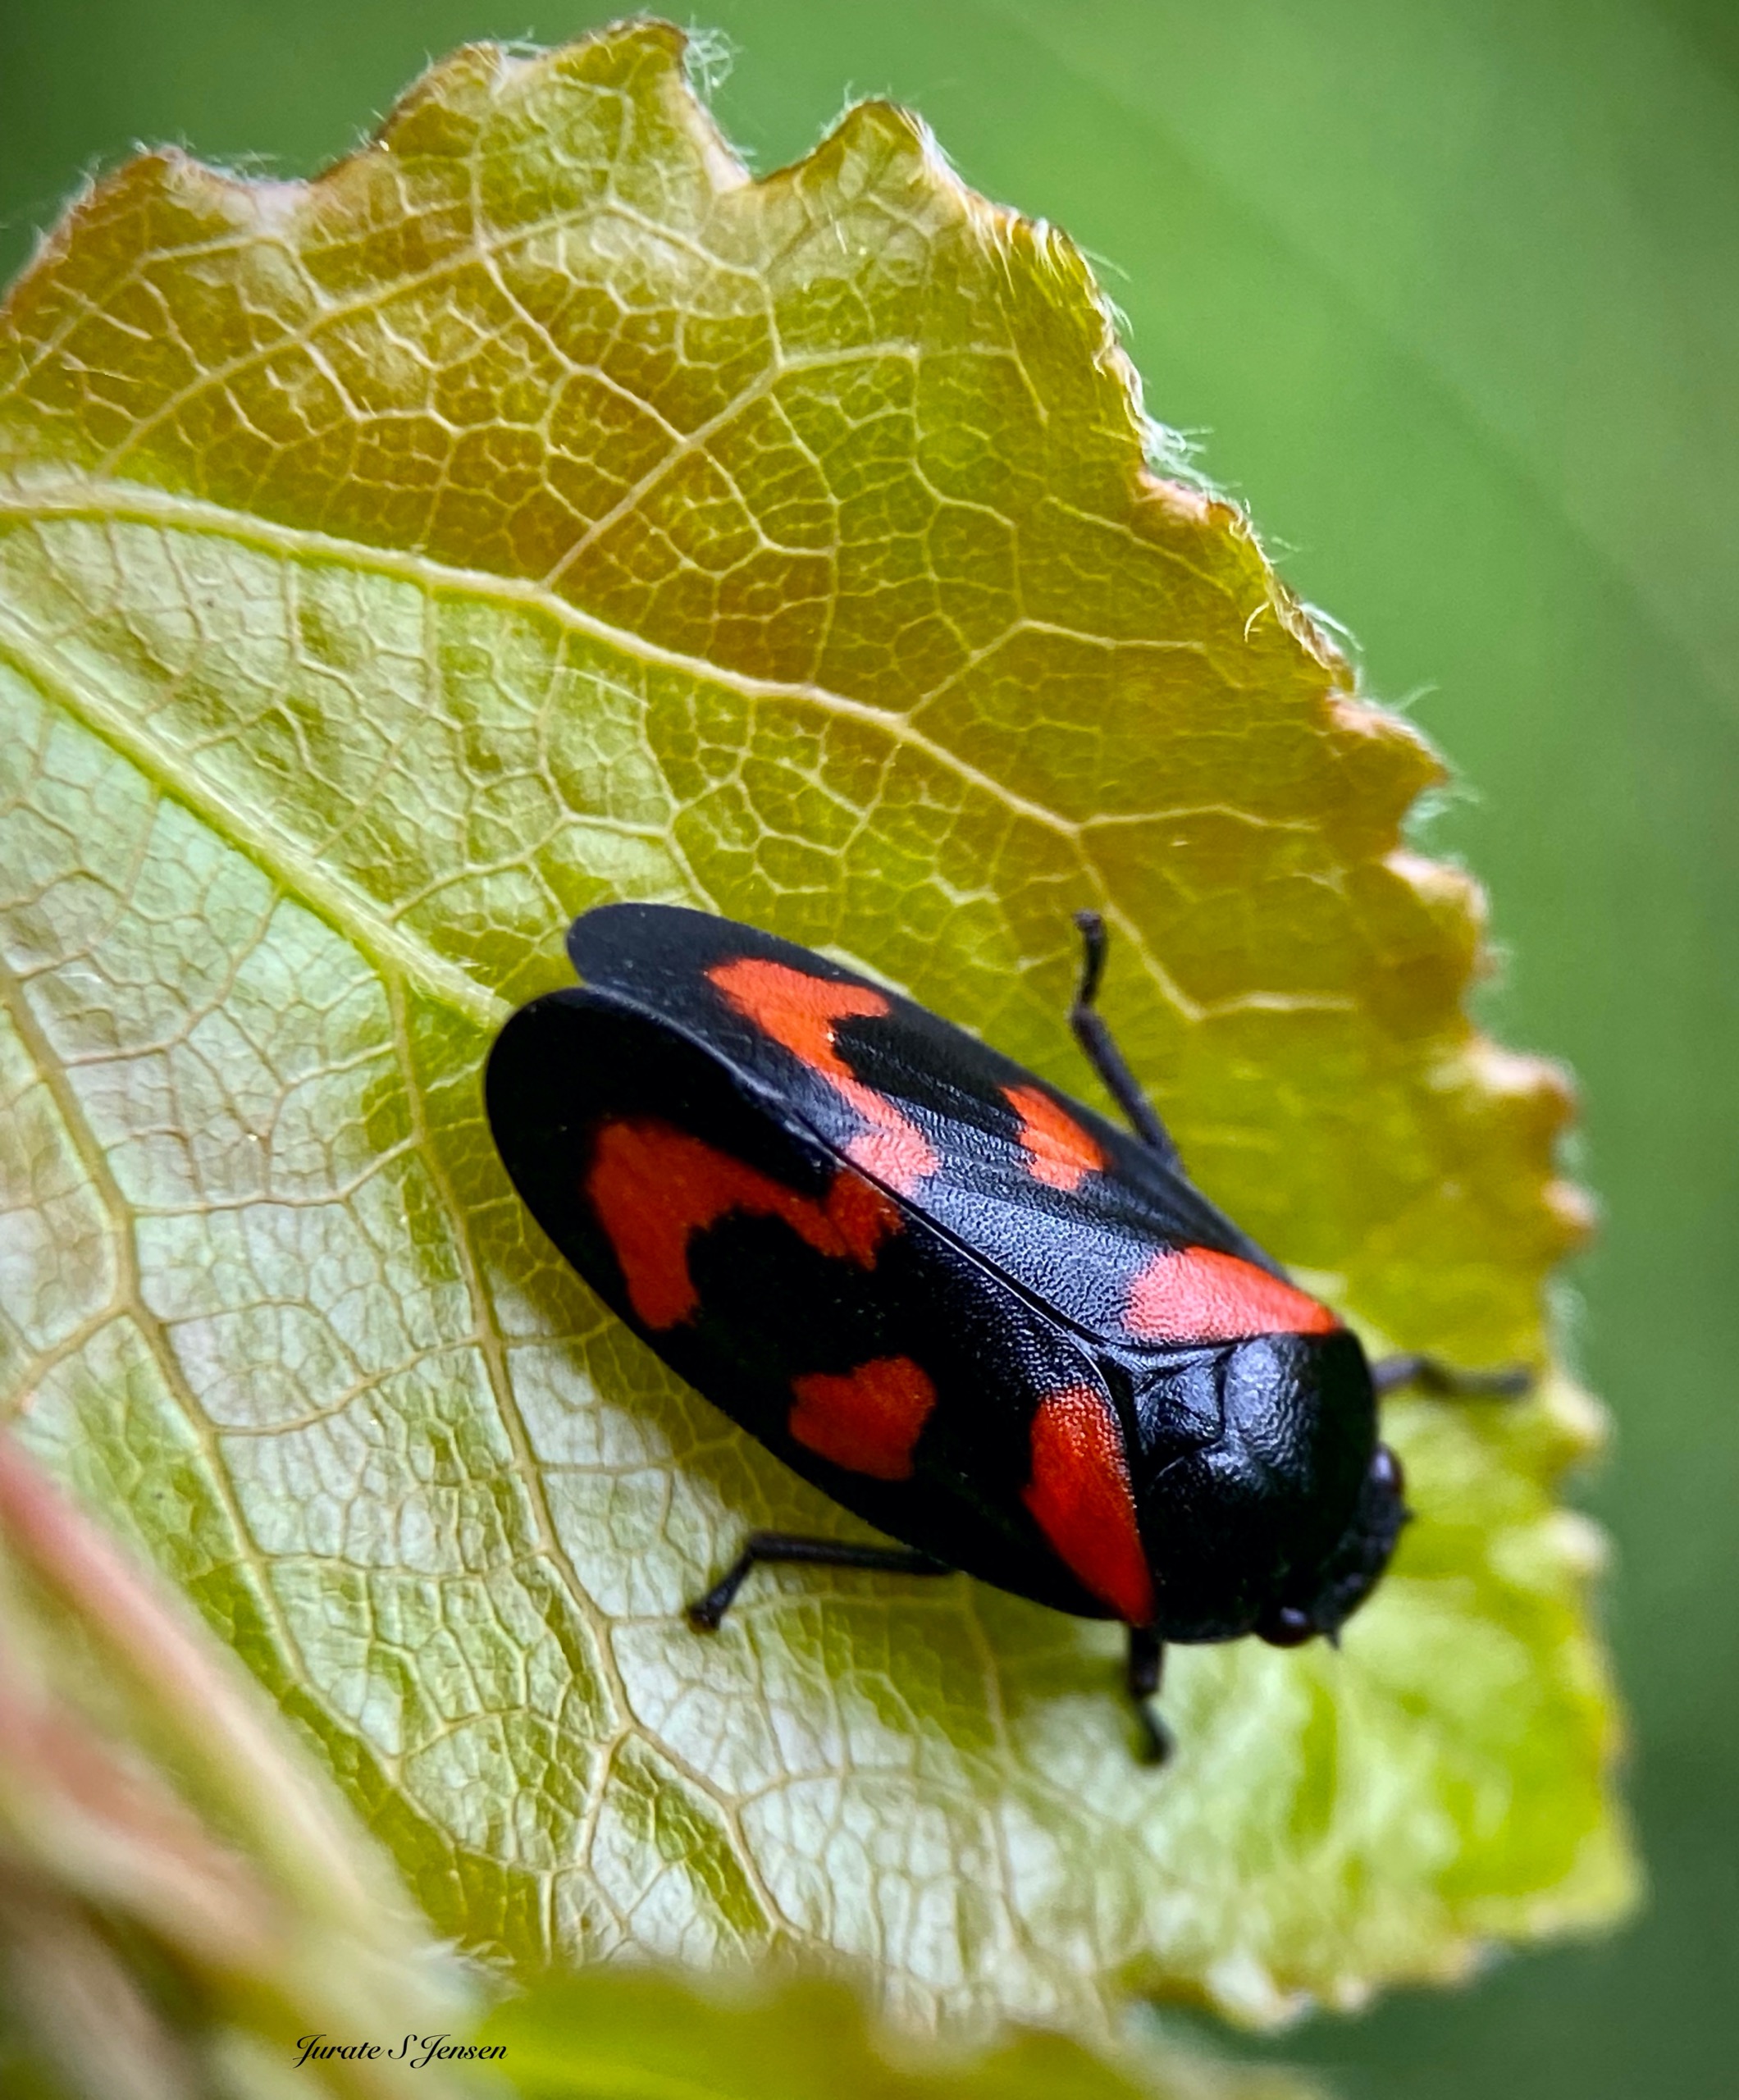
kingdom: Animalia
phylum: Arthropoda
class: Insecta
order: Hemiptera
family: Cercopidae
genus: Cercopis
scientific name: Cercopis vulnerata
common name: Blodcikade
